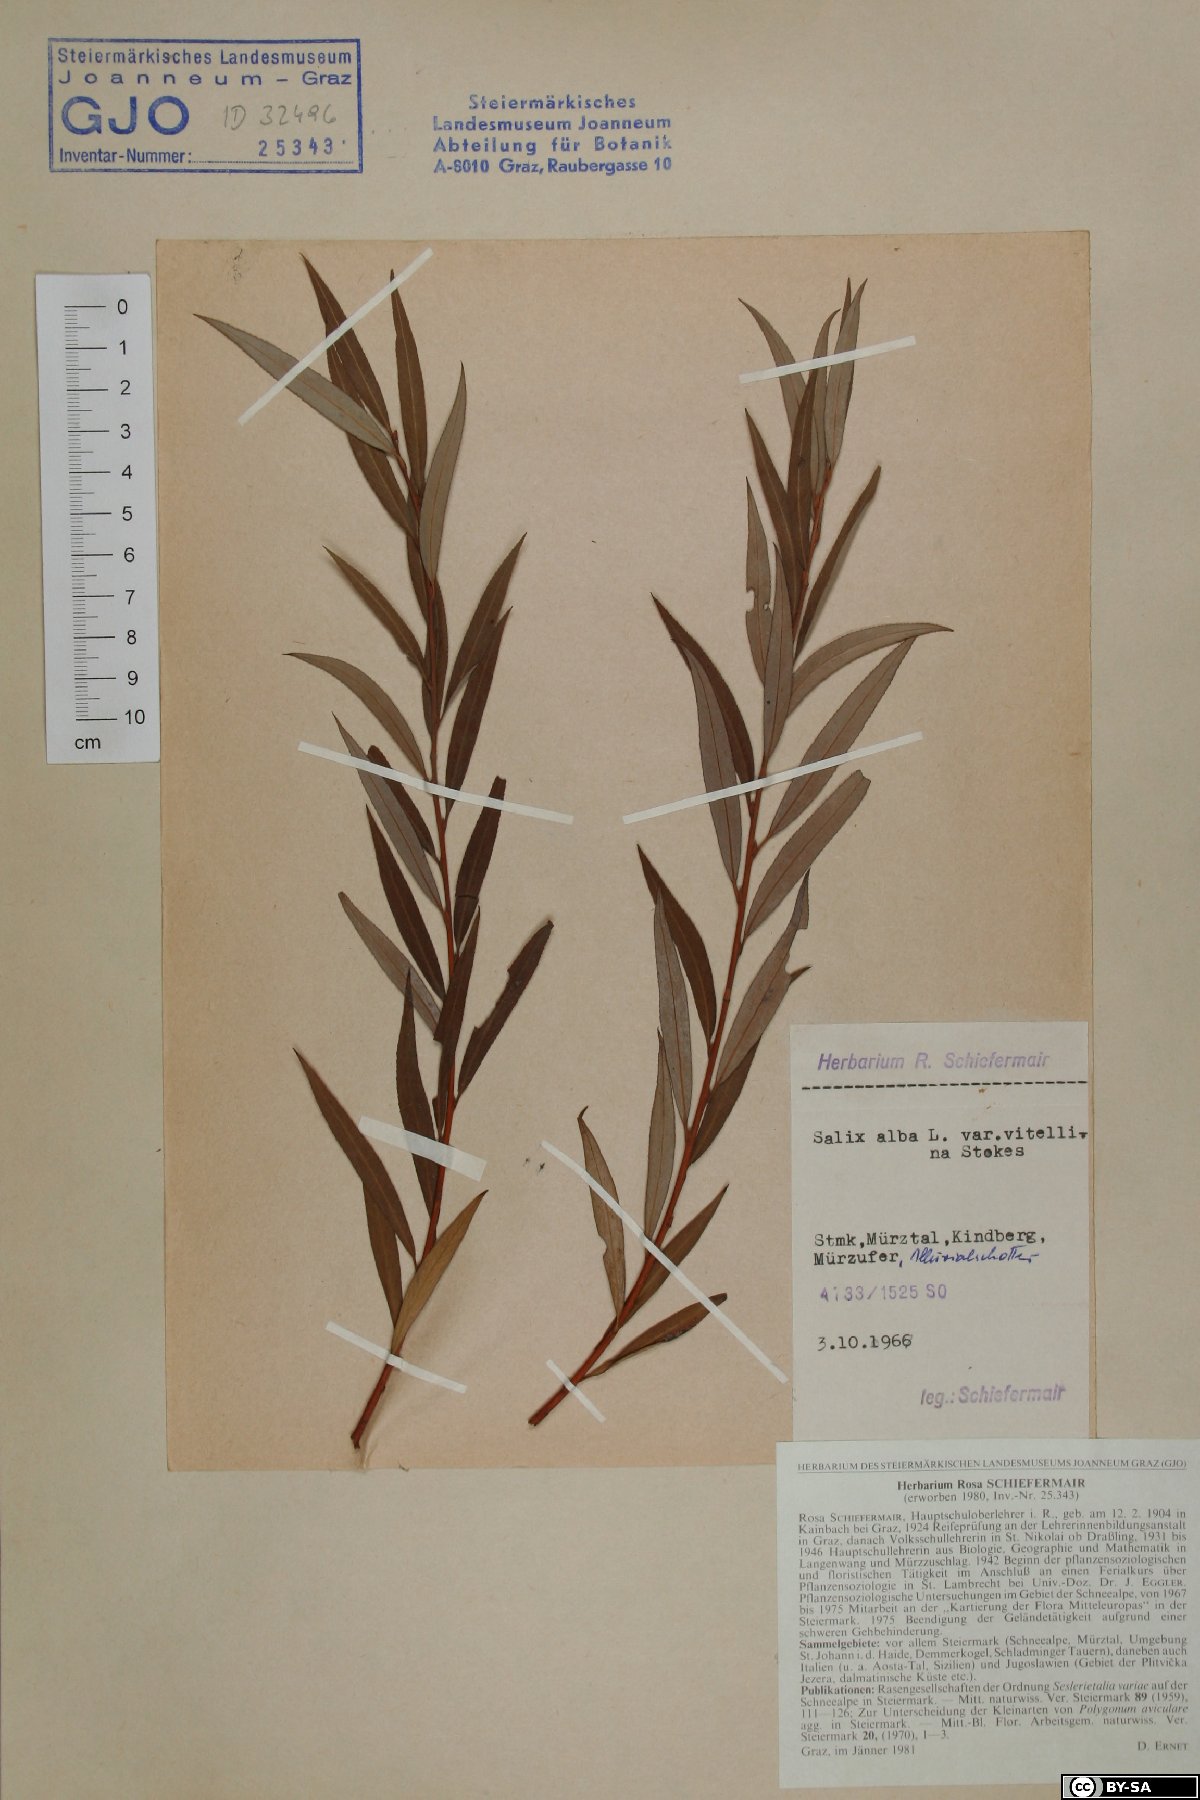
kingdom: Plantae
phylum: Tracheophyta
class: Magnoliopsida
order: Malpighiales
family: Salicaceae
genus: Salix
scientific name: Salix alba
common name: White willow
